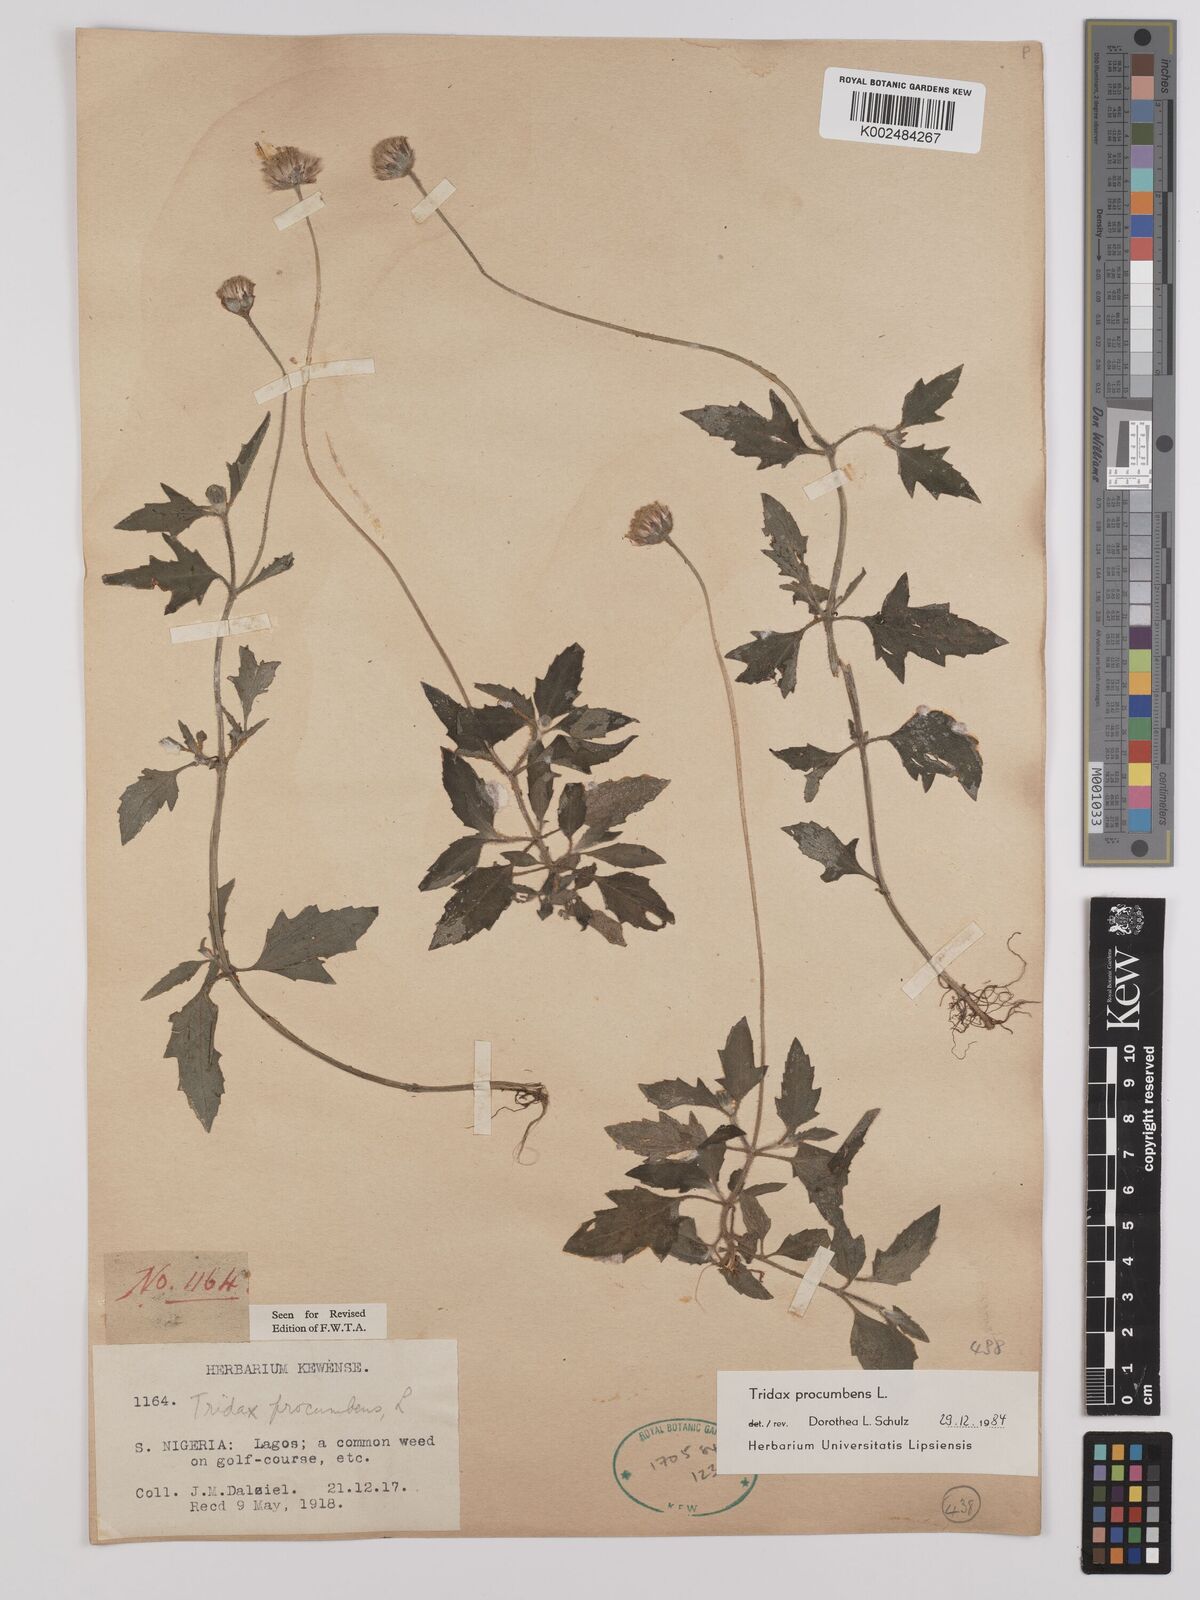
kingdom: Plantae
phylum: Tracheophyta
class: Magnoliopsida
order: Asterales
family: Asteraceae
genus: Tridax
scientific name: Tridax procumbens
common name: Coatbuttons
